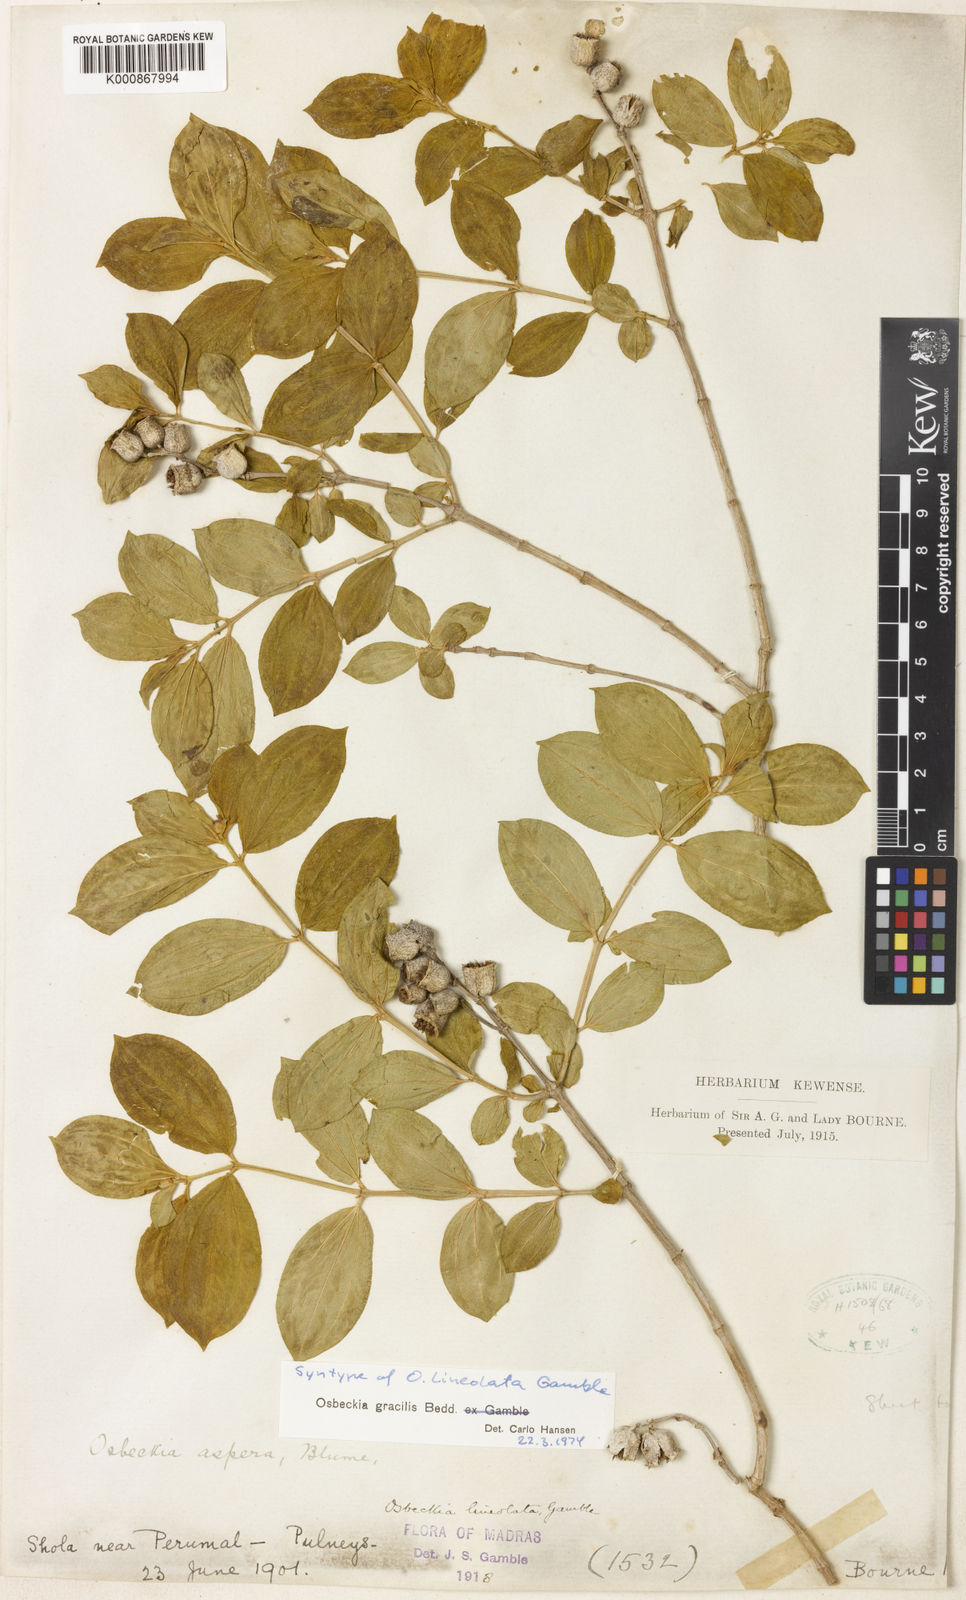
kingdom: Plantae
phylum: Tracheophyta
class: Magnoliopsida
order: Myrtales
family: Melastomataceae
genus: Osbeckia
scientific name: Osbeckia gracilis
